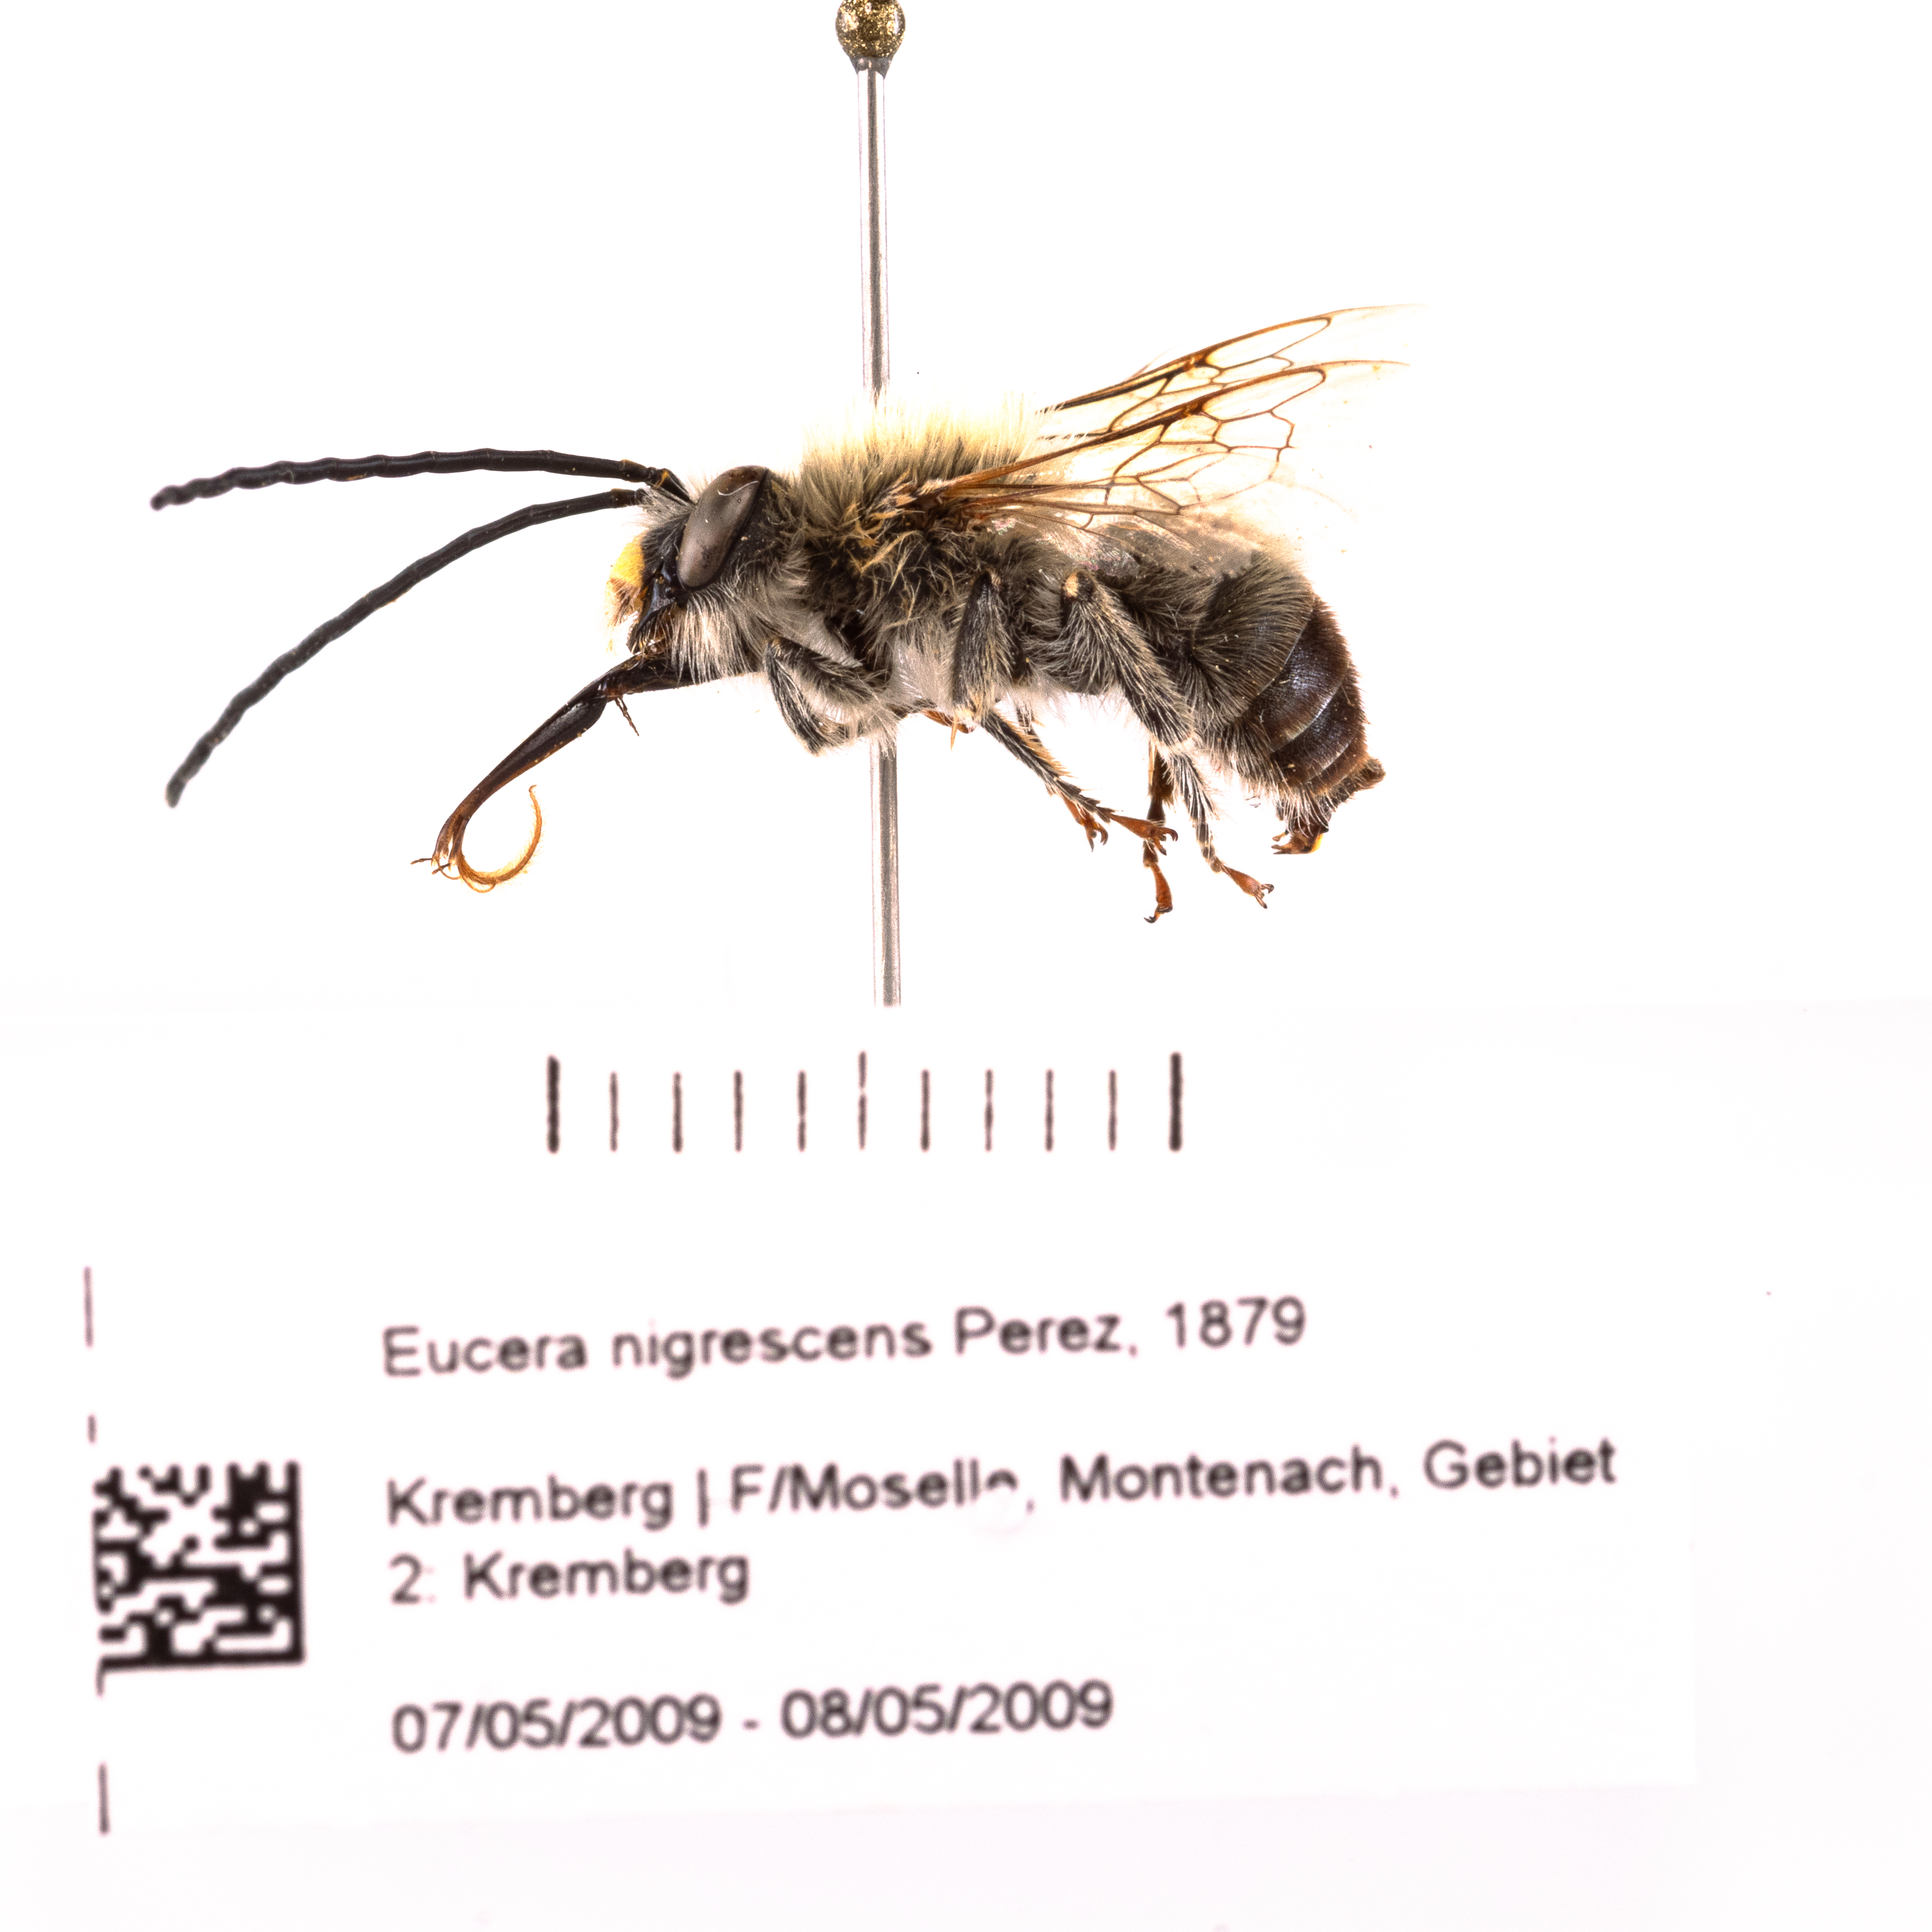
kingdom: Animalia
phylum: Arthropoda
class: Insecta
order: Hymenoptera
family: Apidae
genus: Eucera
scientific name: Eucera nigrescens
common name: Tuberculate long-horned bee
